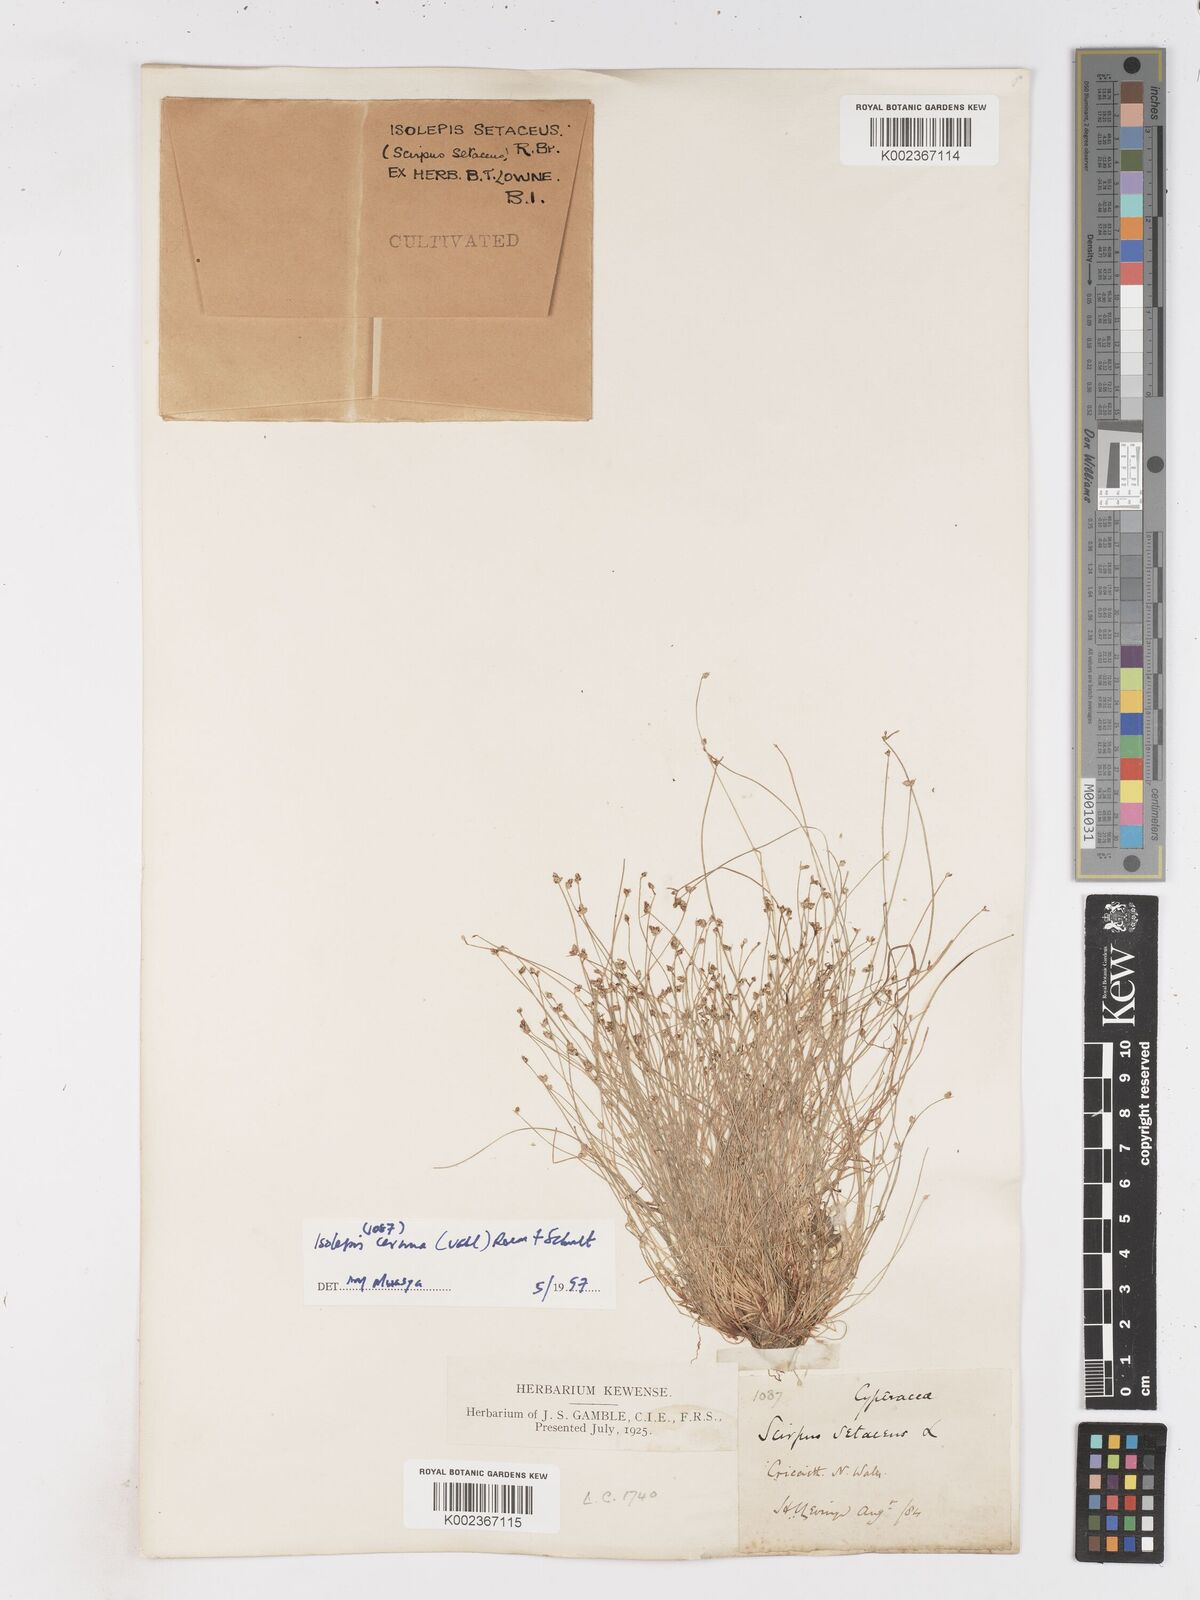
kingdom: Plantae
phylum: Tracheophyta
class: Liliopsida
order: Poales
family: Cyperaceae
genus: Isolepis
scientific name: Isolepis setacea
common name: Bristle club-rush
